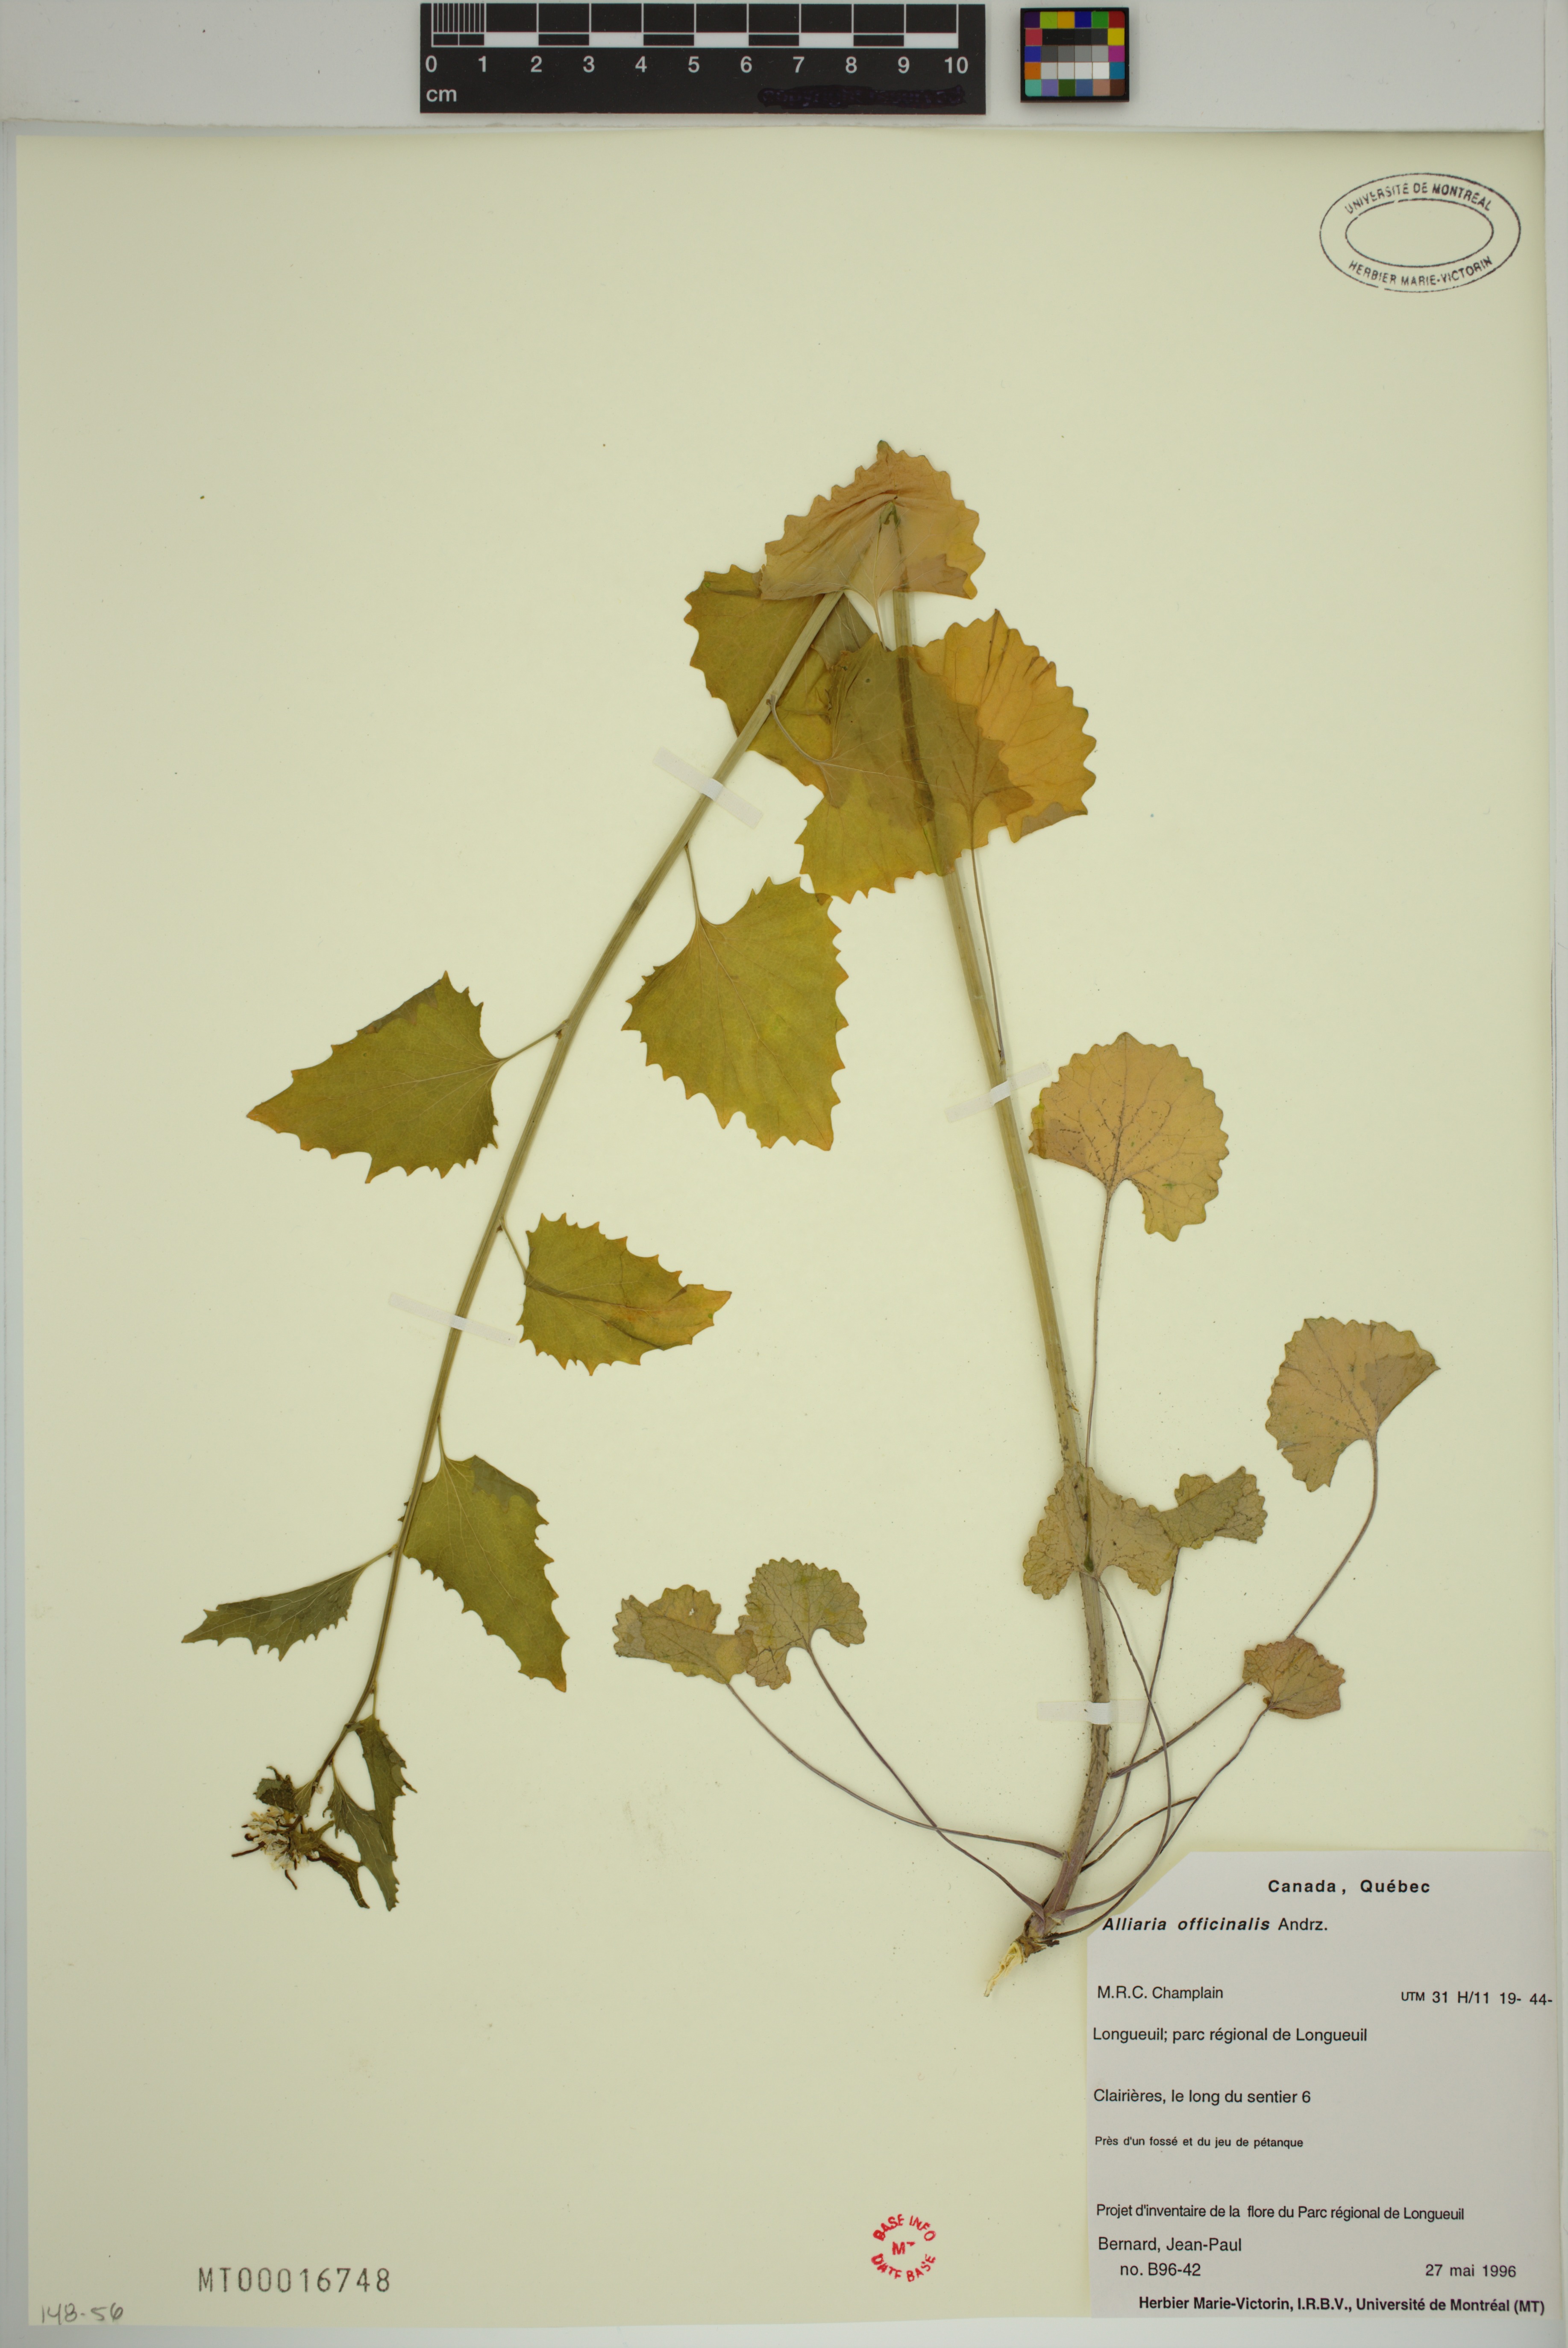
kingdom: Plantae
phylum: Tracheophyta
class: Magnoliopsida
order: Brassicales
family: Brassicaceae
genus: Alliaria
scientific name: Alliaria petiolata
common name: Garlic mustard
